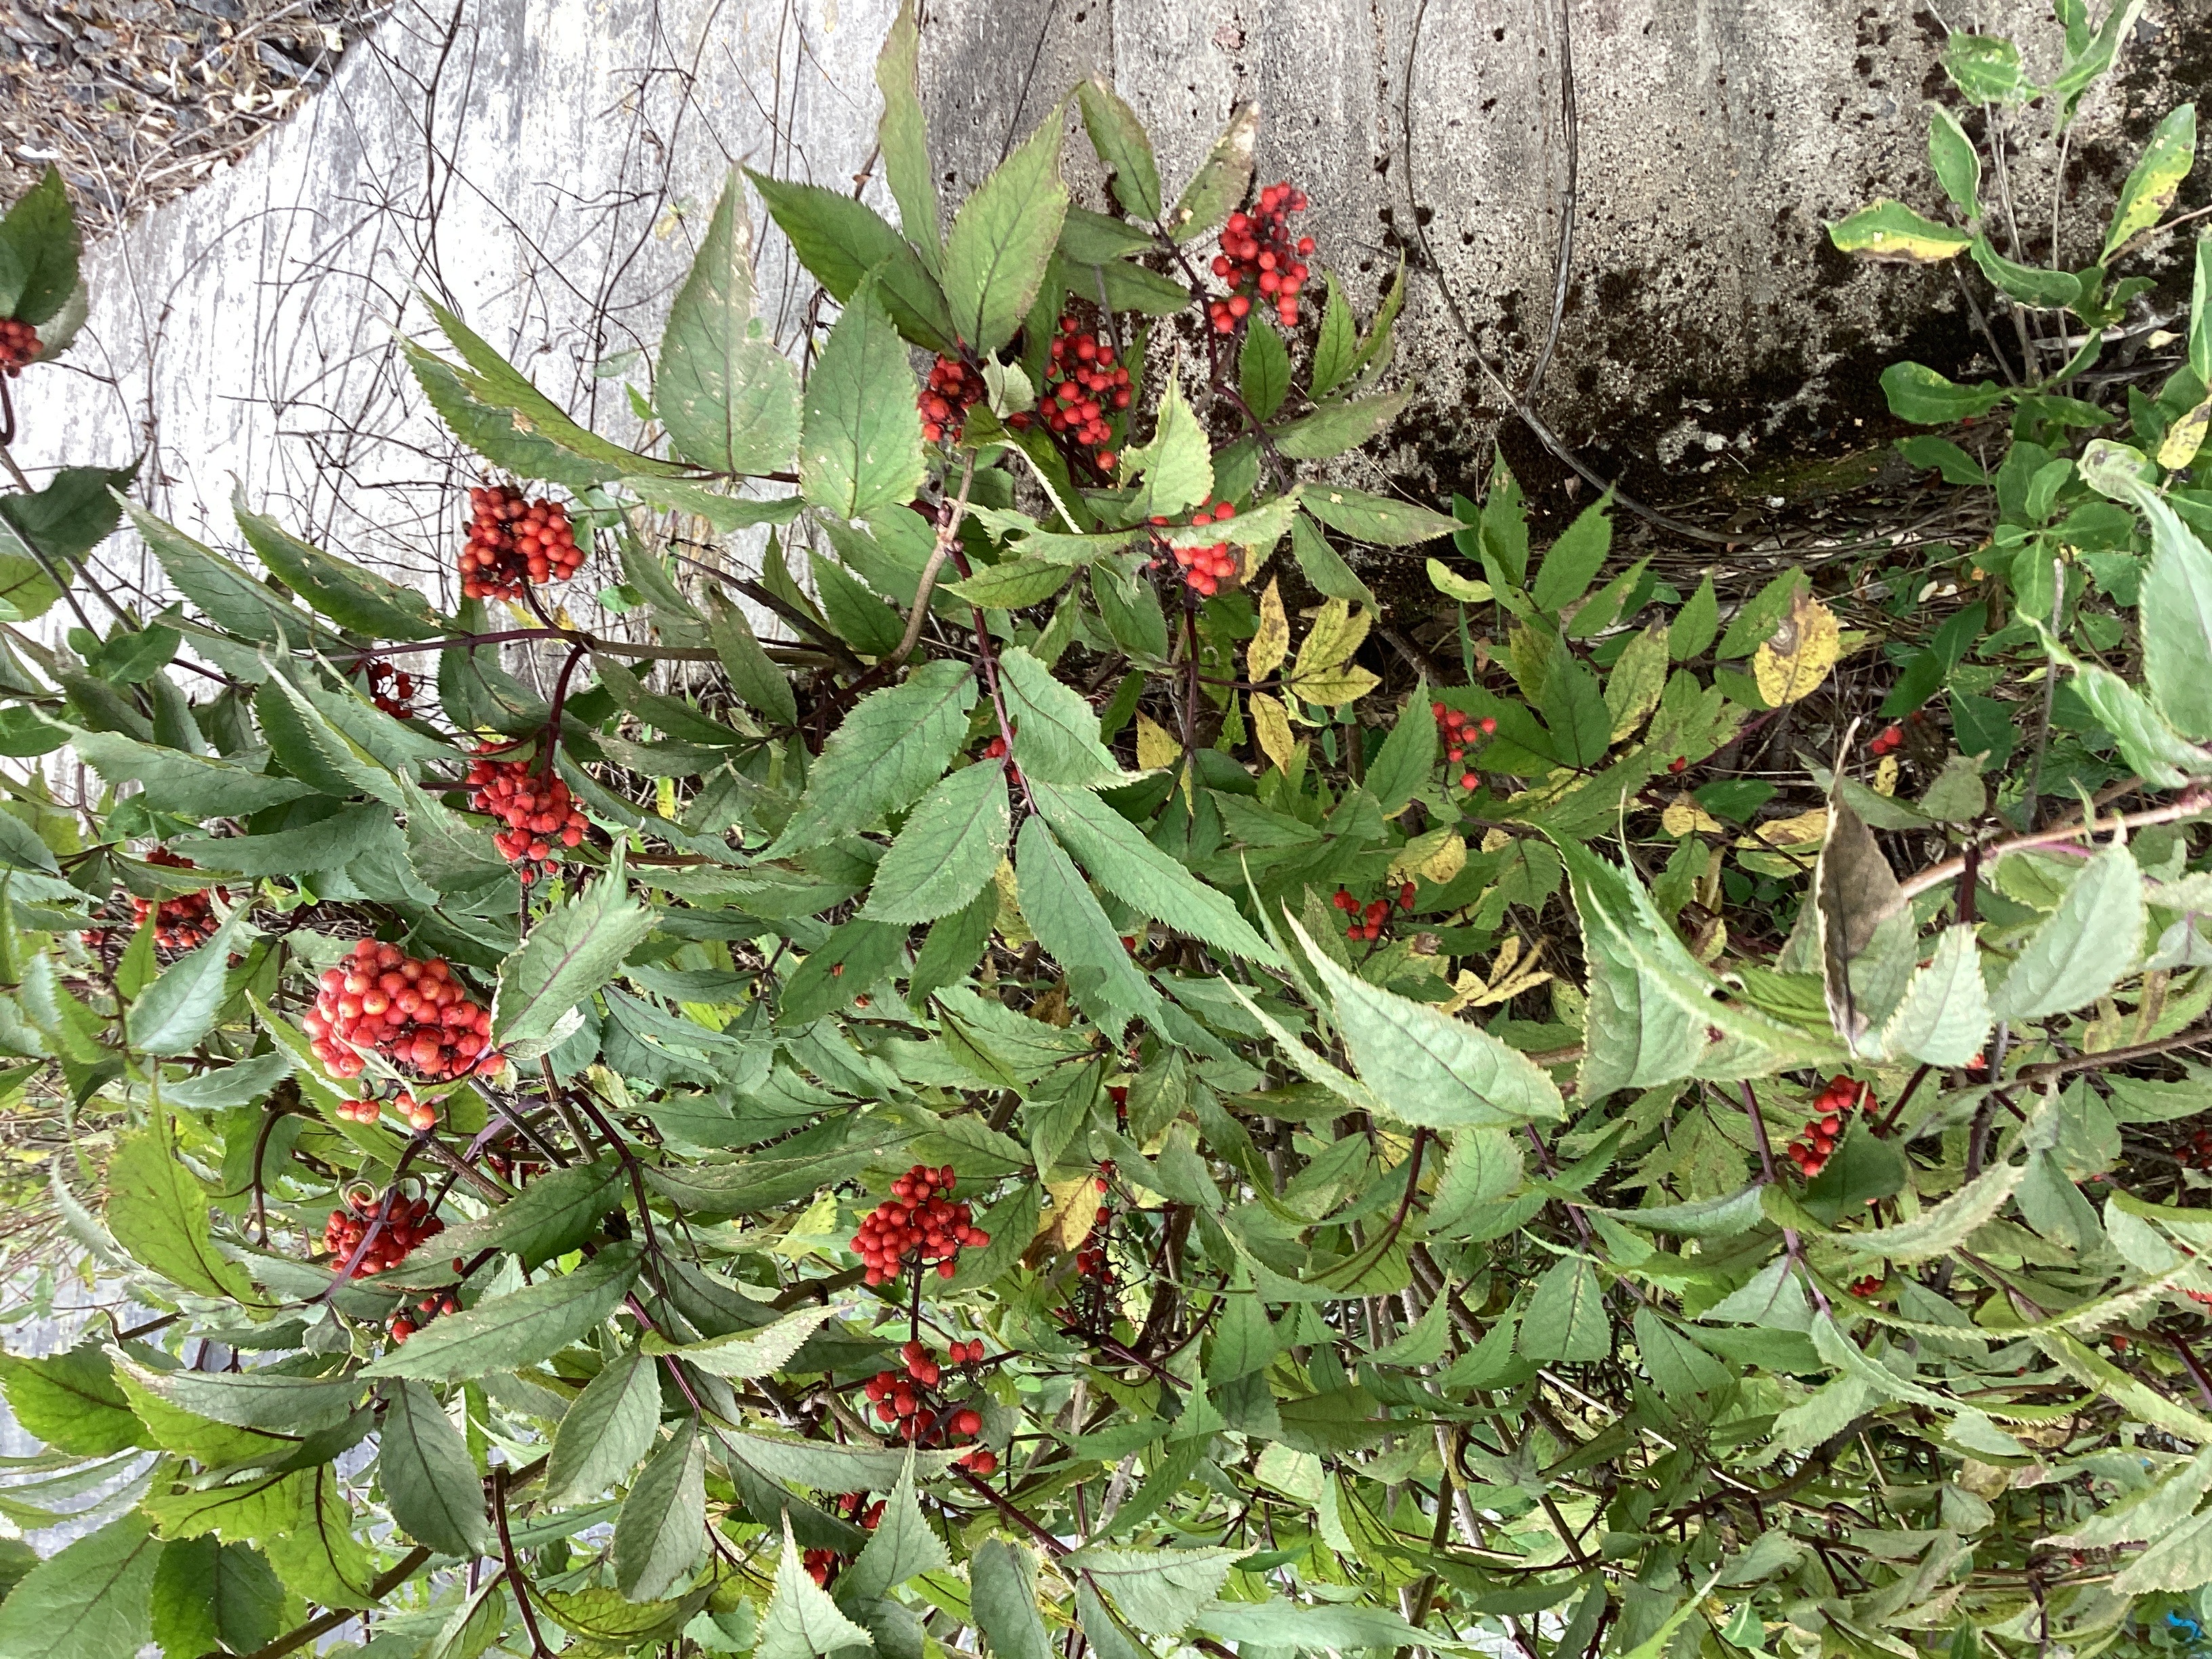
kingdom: Plantae
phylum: Tracheophyta
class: Magnoliopsida
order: Dipsacales
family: Viburnaceae
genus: Sambucus
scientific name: Sambucus racemosa
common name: rødhyll
